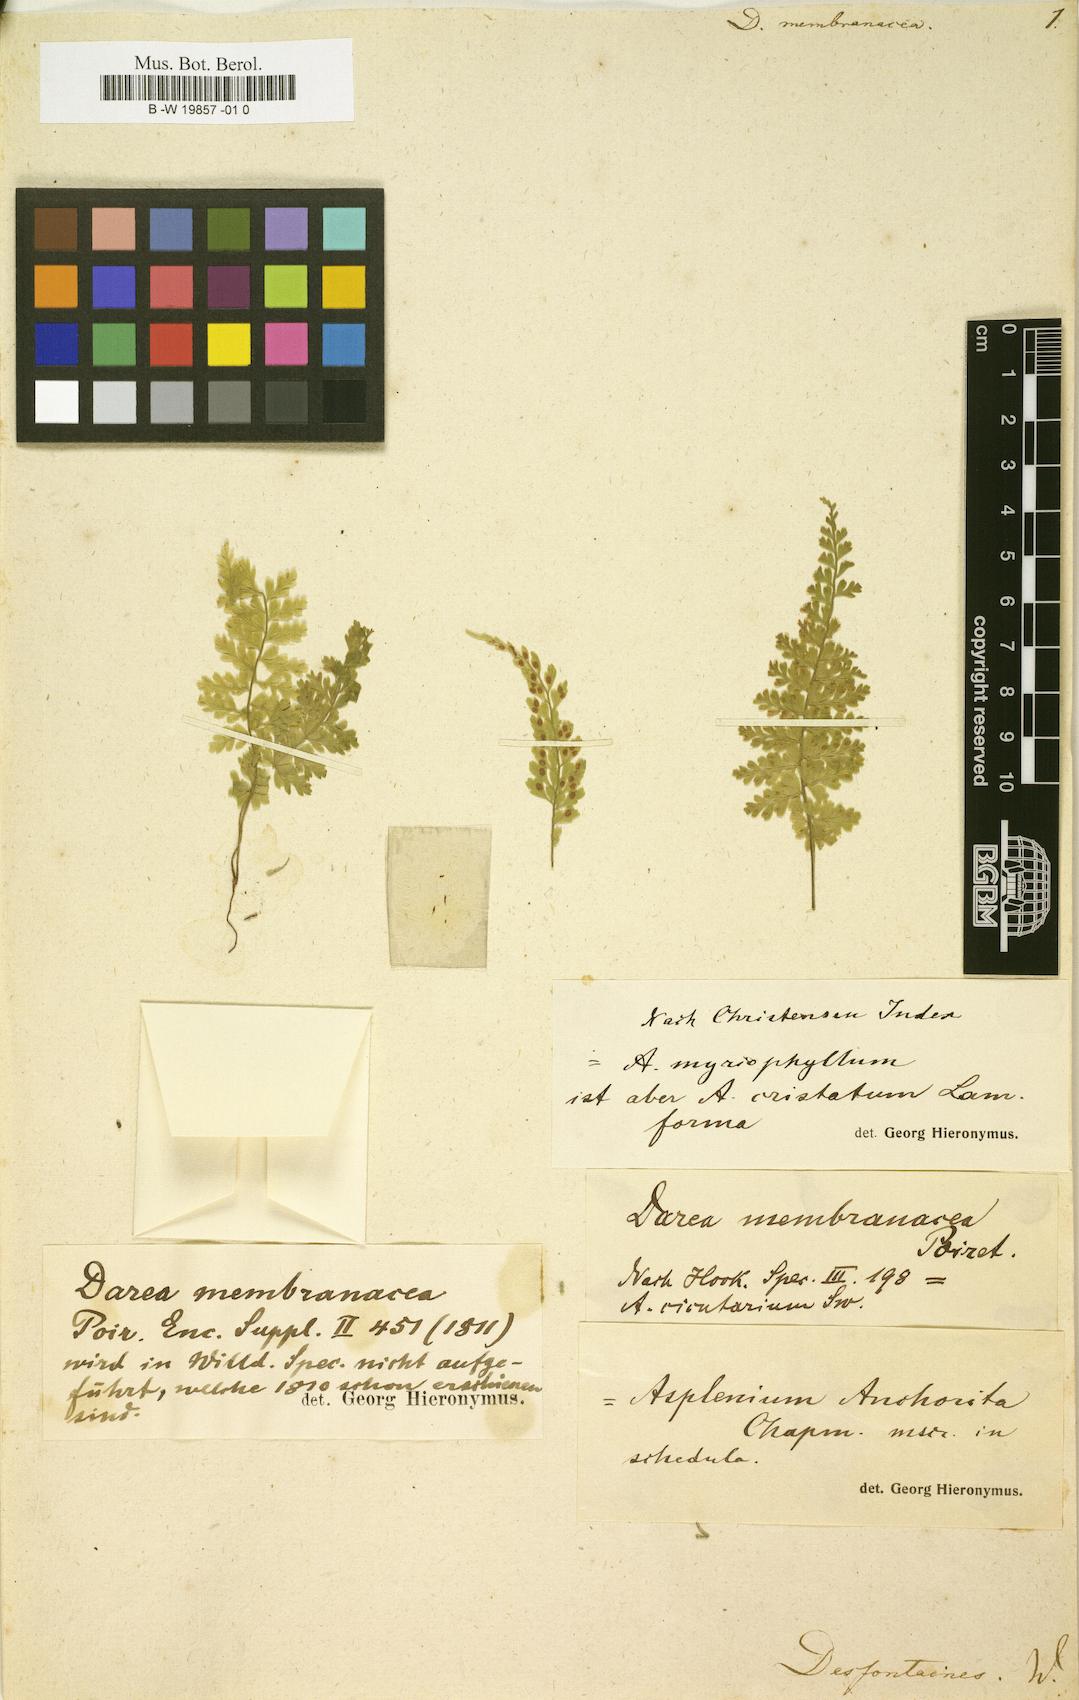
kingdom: Plantae
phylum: Tracheophyta
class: Polypodiopsida
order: Polypodiales
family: Aspleniaceae
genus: Asplenium
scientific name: Asplenium myriophyllum
